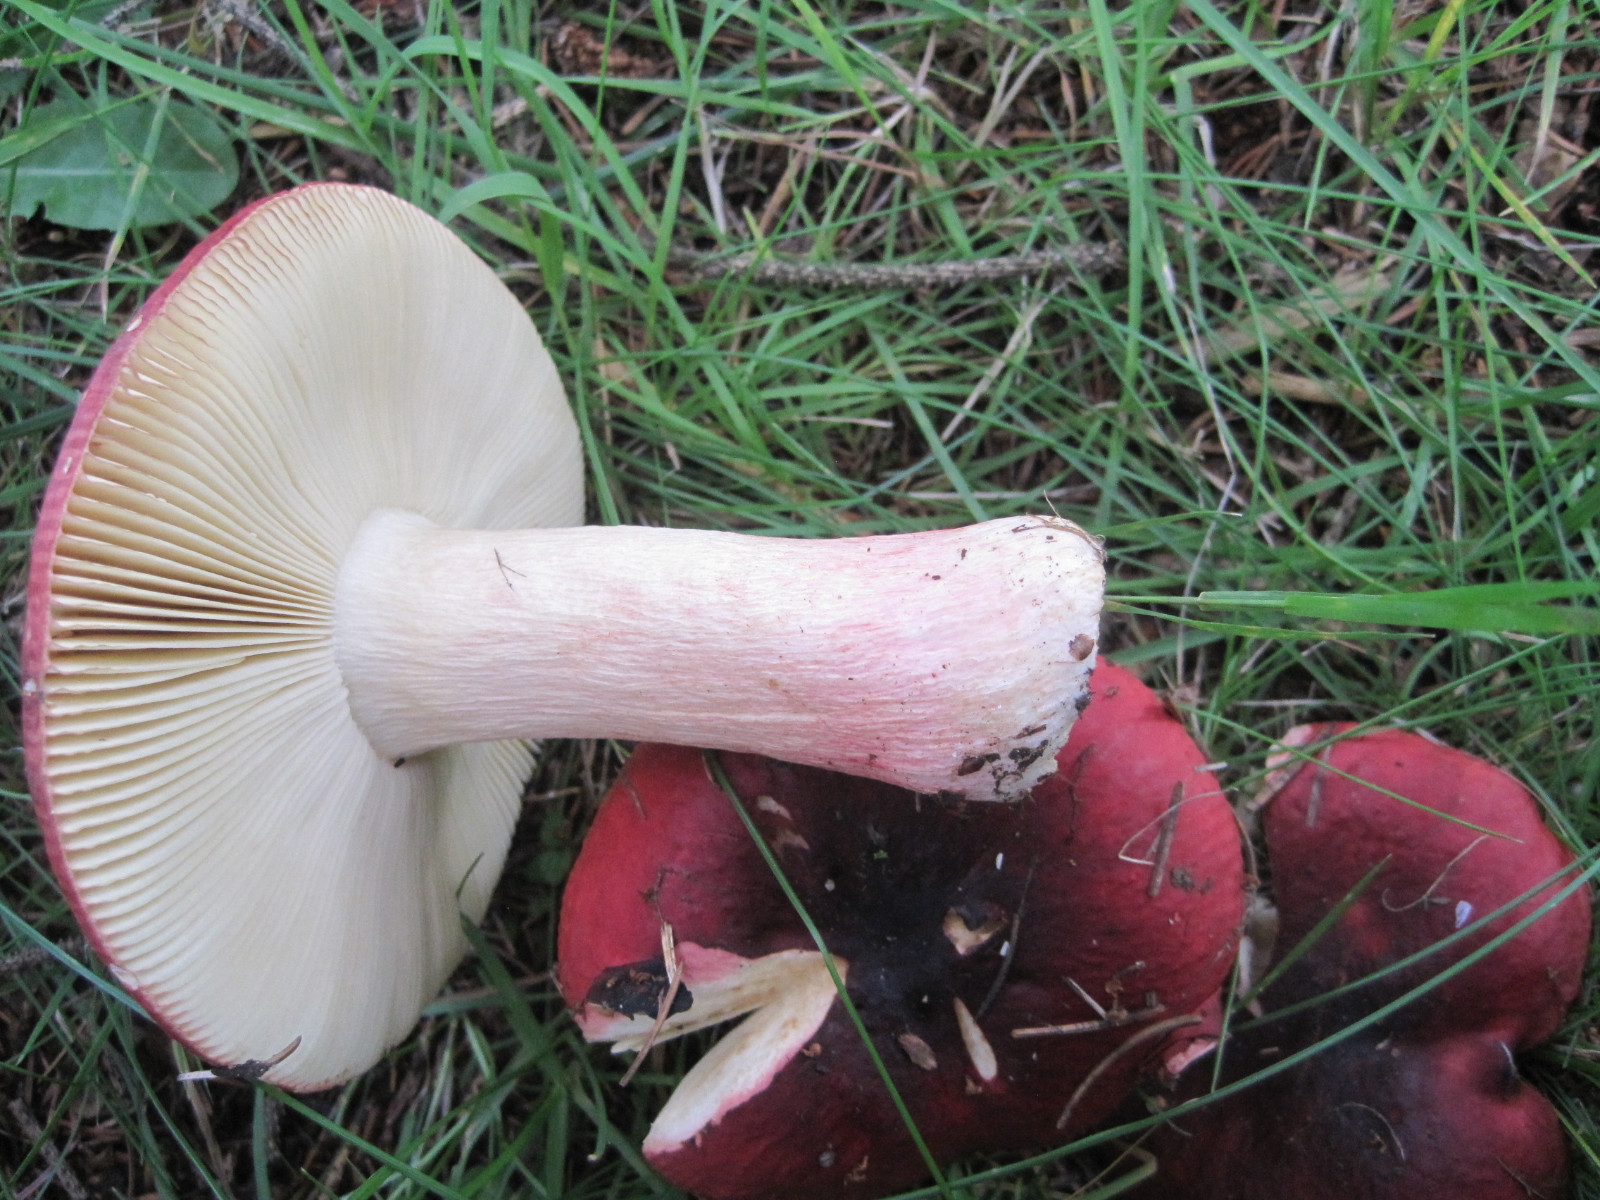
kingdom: Fungi
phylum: Basidiomycota
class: Agaricomycetes
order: Russulales
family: Russulaceae
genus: Russula
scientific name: Russula xerampelina
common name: hummer-skørhat
